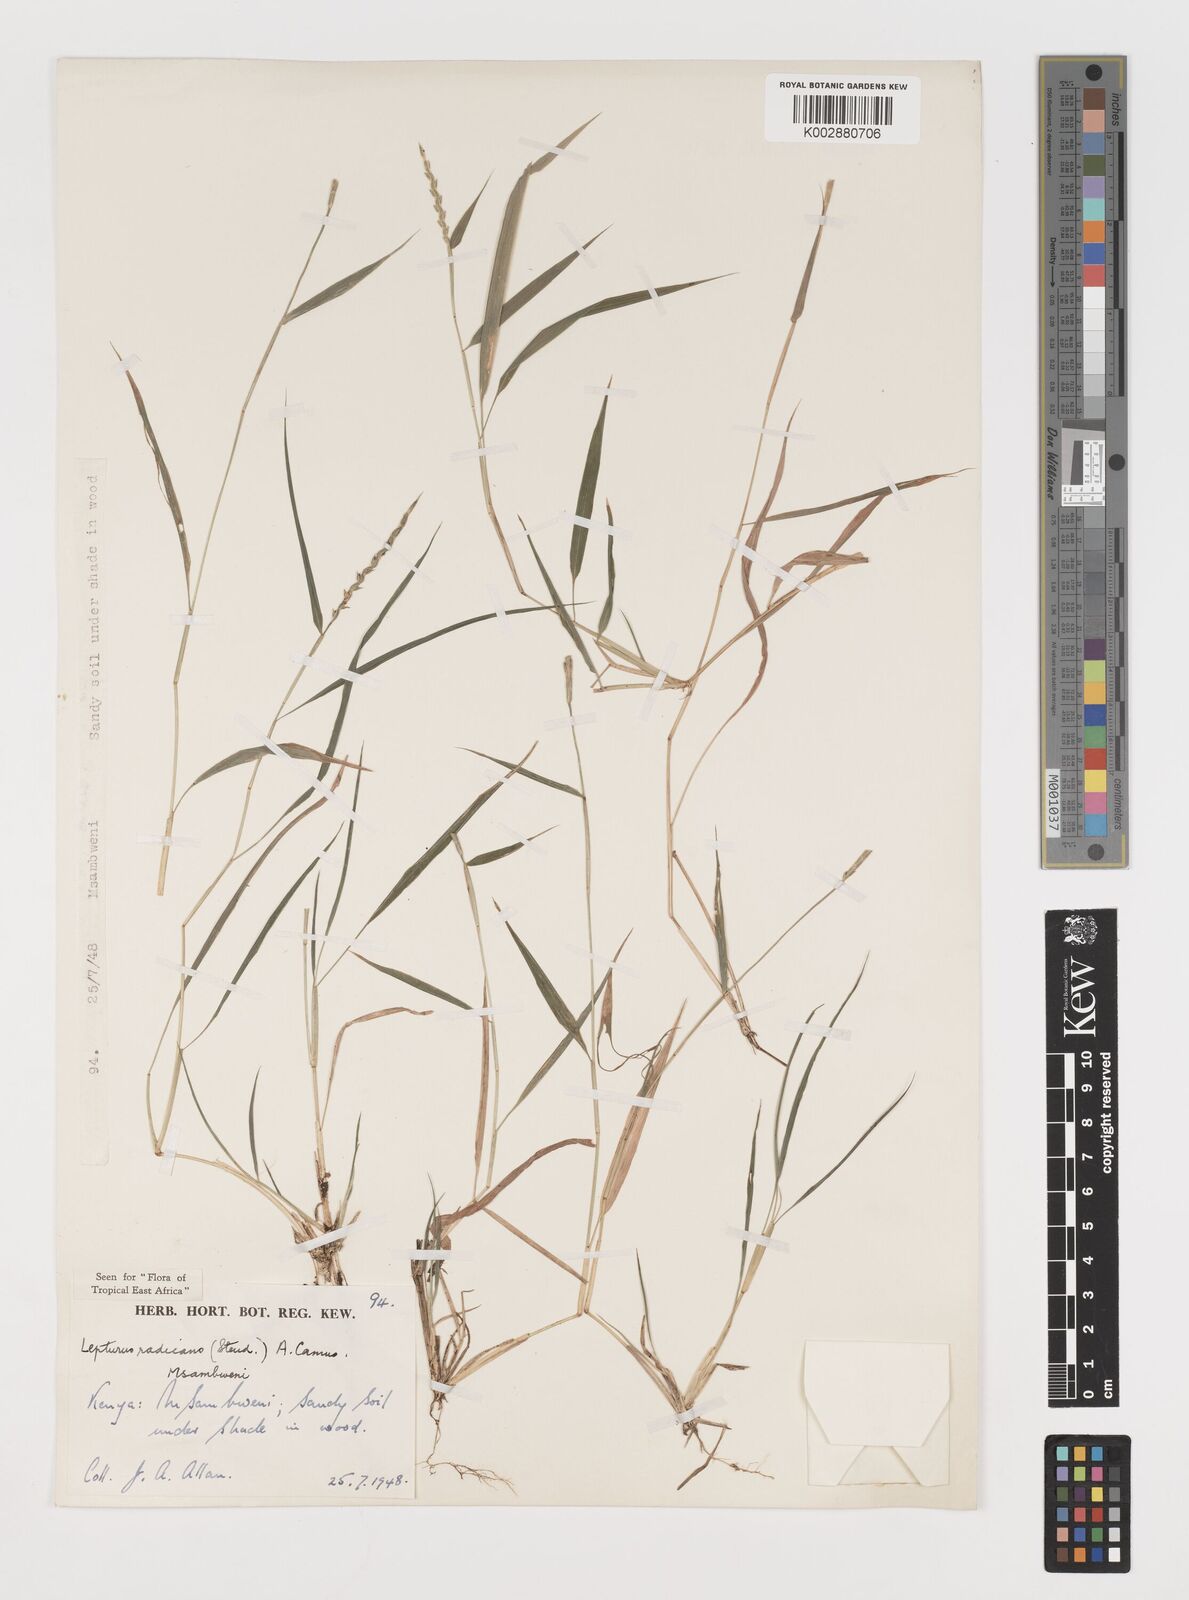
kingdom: Plantae
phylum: Tracheophyta
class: Liliopsida
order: Poales
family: Poaceae
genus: Lepturus
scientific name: Lepturus radicans
